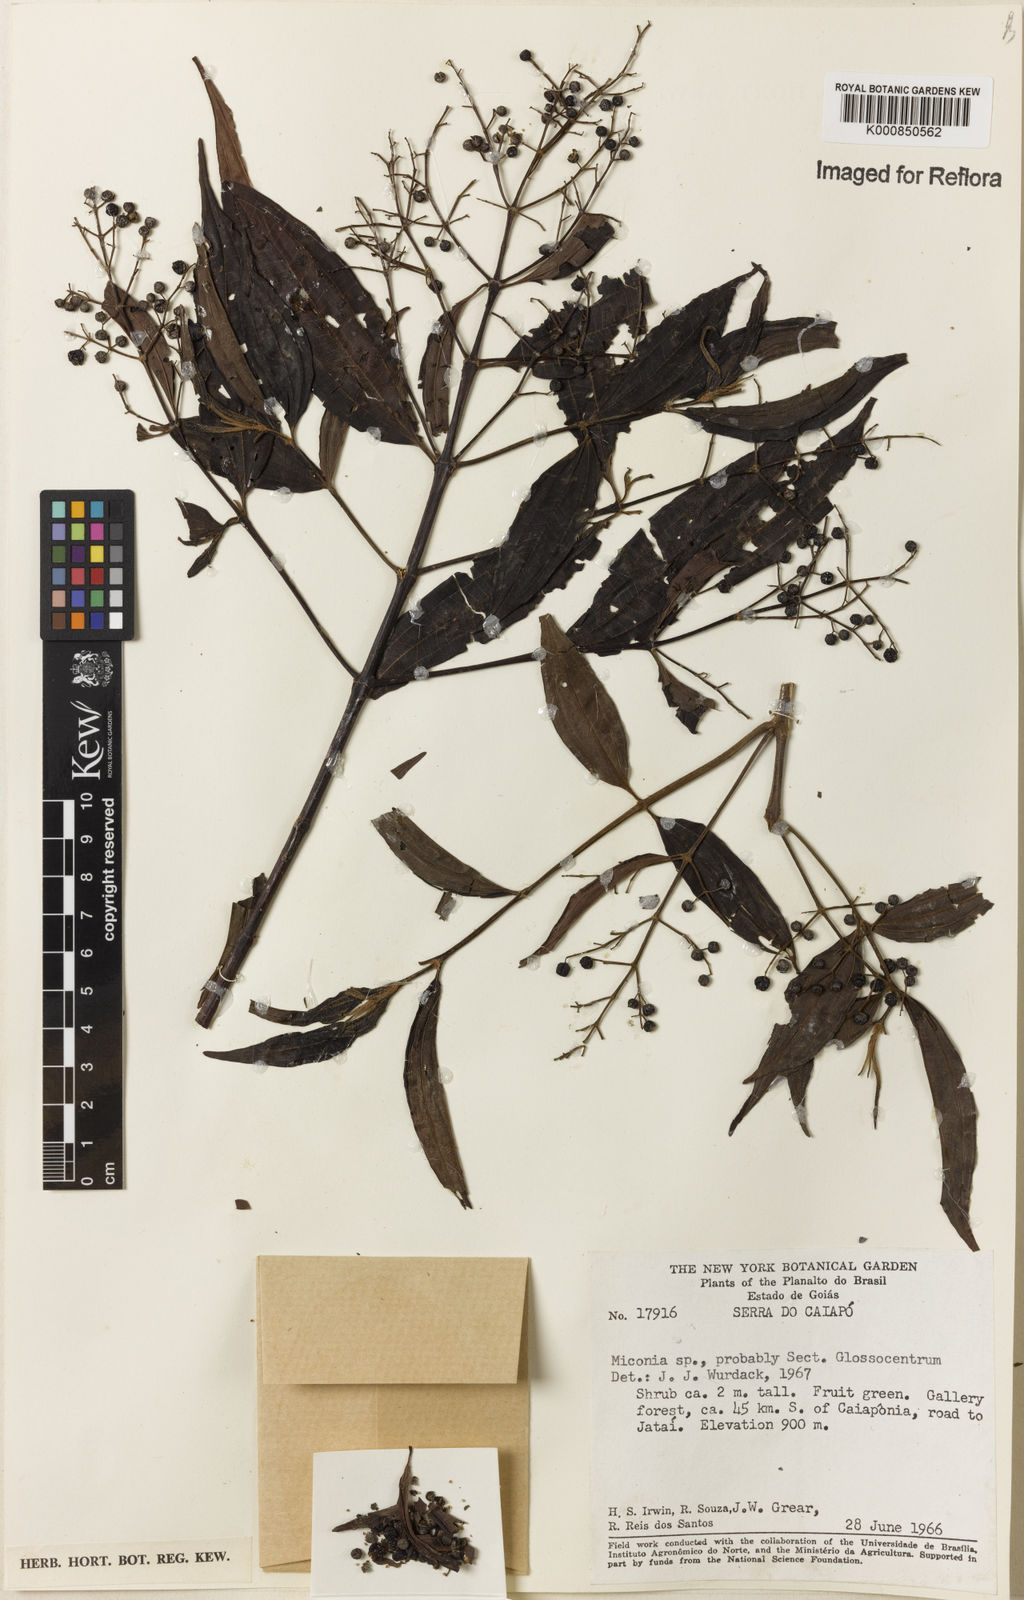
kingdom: Plantae
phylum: Tracheophyta
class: Magnoliopsida
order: Myrtales
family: Melastomataceae
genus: Miconia
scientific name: Miconia
